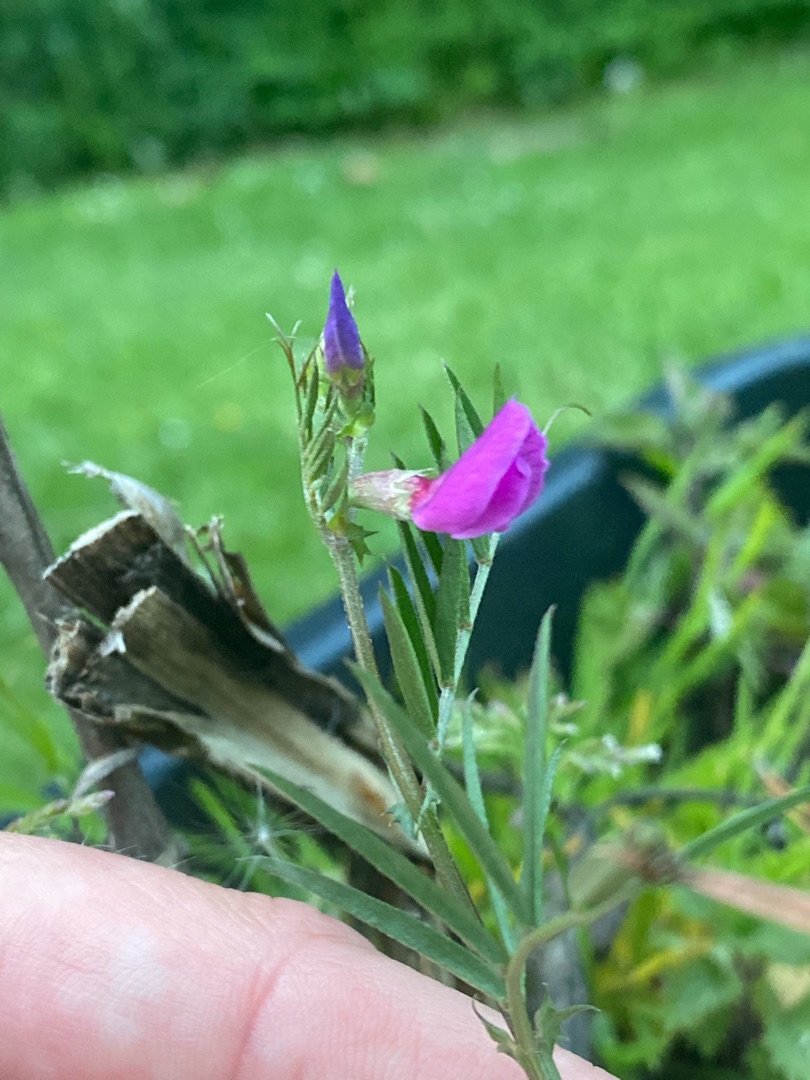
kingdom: Plantae
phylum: Tracheophyta
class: Magnoliopsida
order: Fabales
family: Fabaceae
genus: Vicia
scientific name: Vicia sativa
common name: Smalbladet vikke
